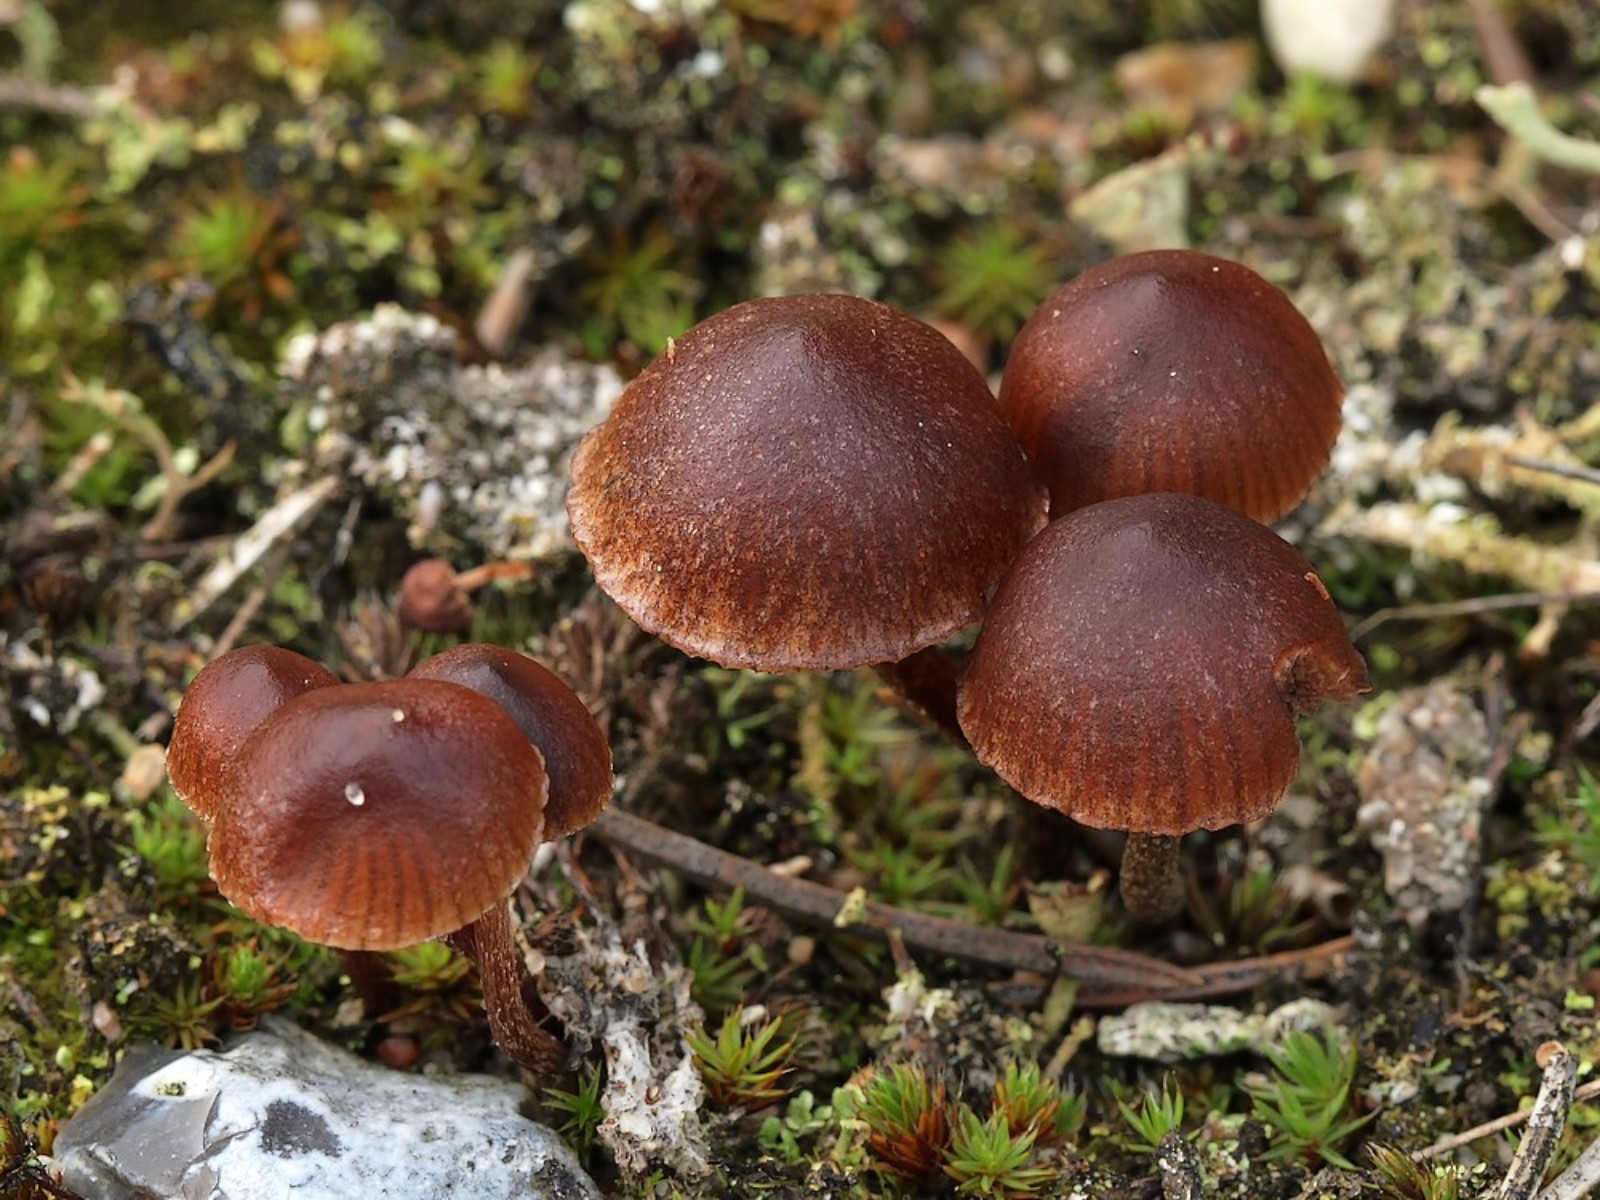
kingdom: Fungi
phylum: Basidiomycota
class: Agaricomycetes
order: Agaricales
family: Strophariaceae
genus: Deconica
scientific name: Deconica montana
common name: rødbrun stråhat
